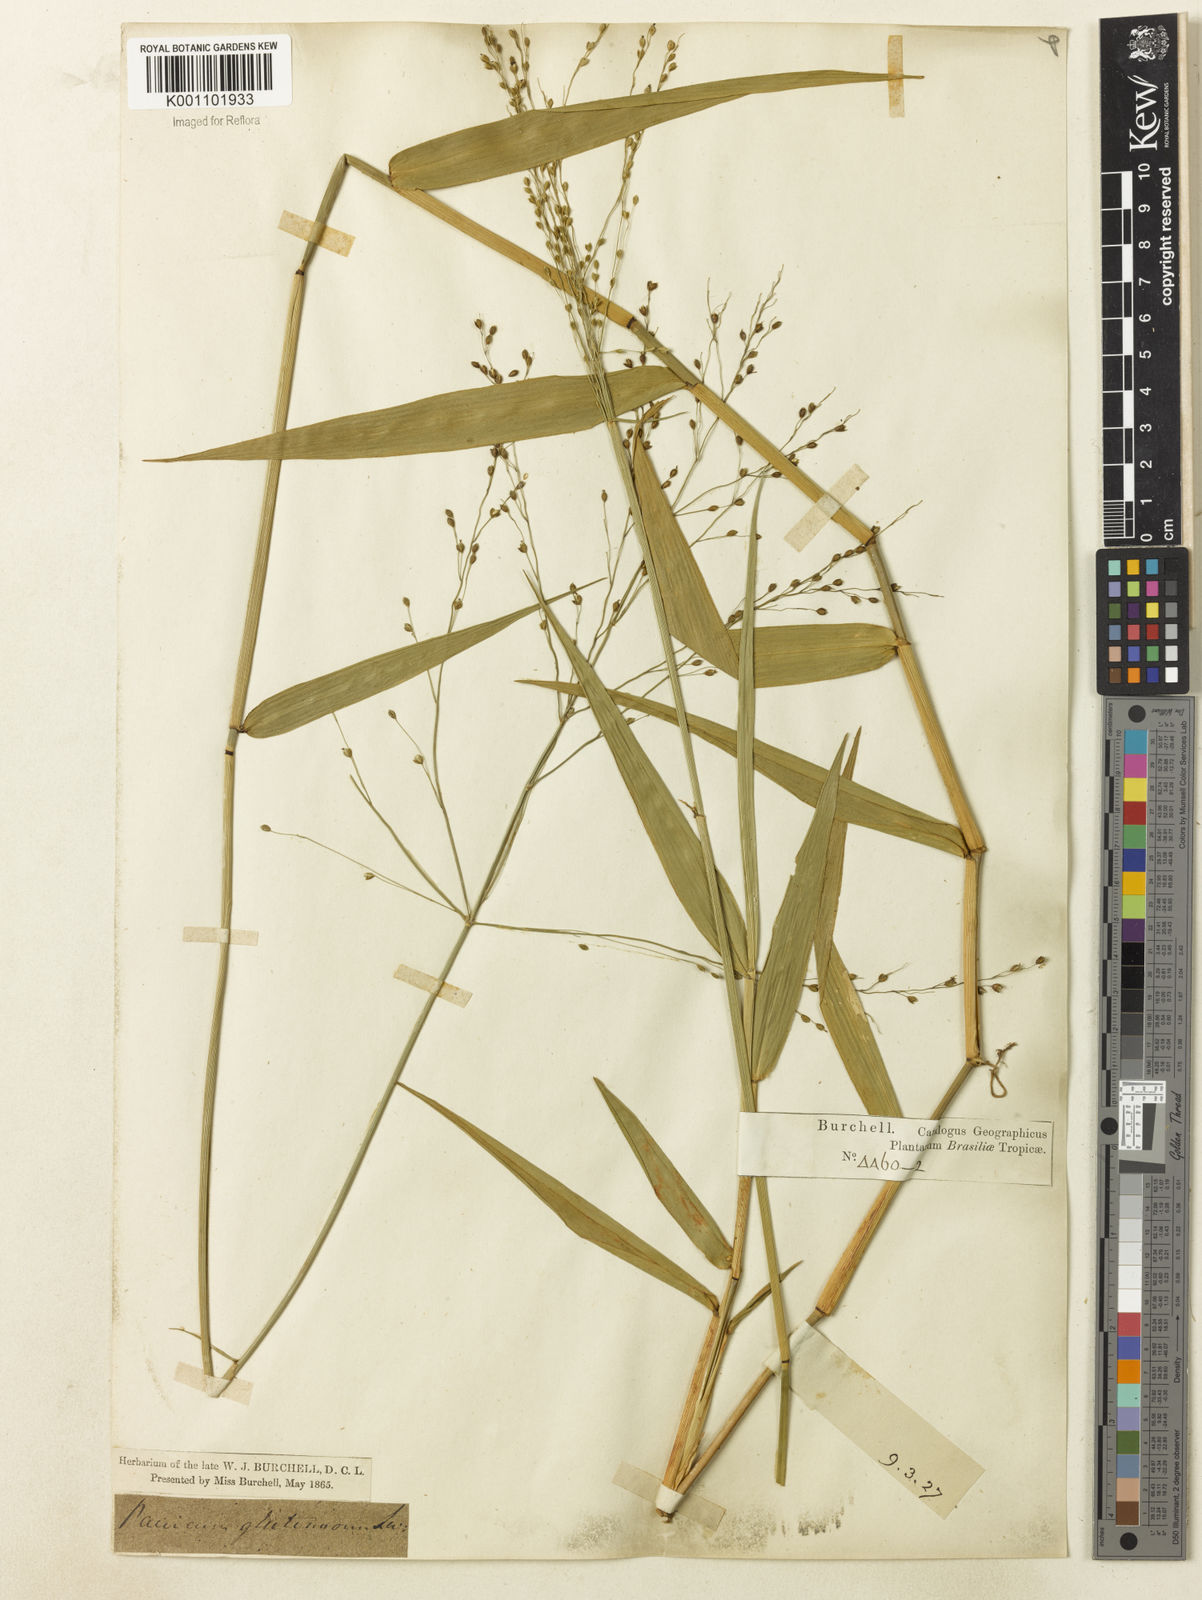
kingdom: Plantae
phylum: Tracheophyta
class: Liliopsida
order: Poales
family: Poaceae
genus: Homolepis
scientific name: Homolepis glutinosa
